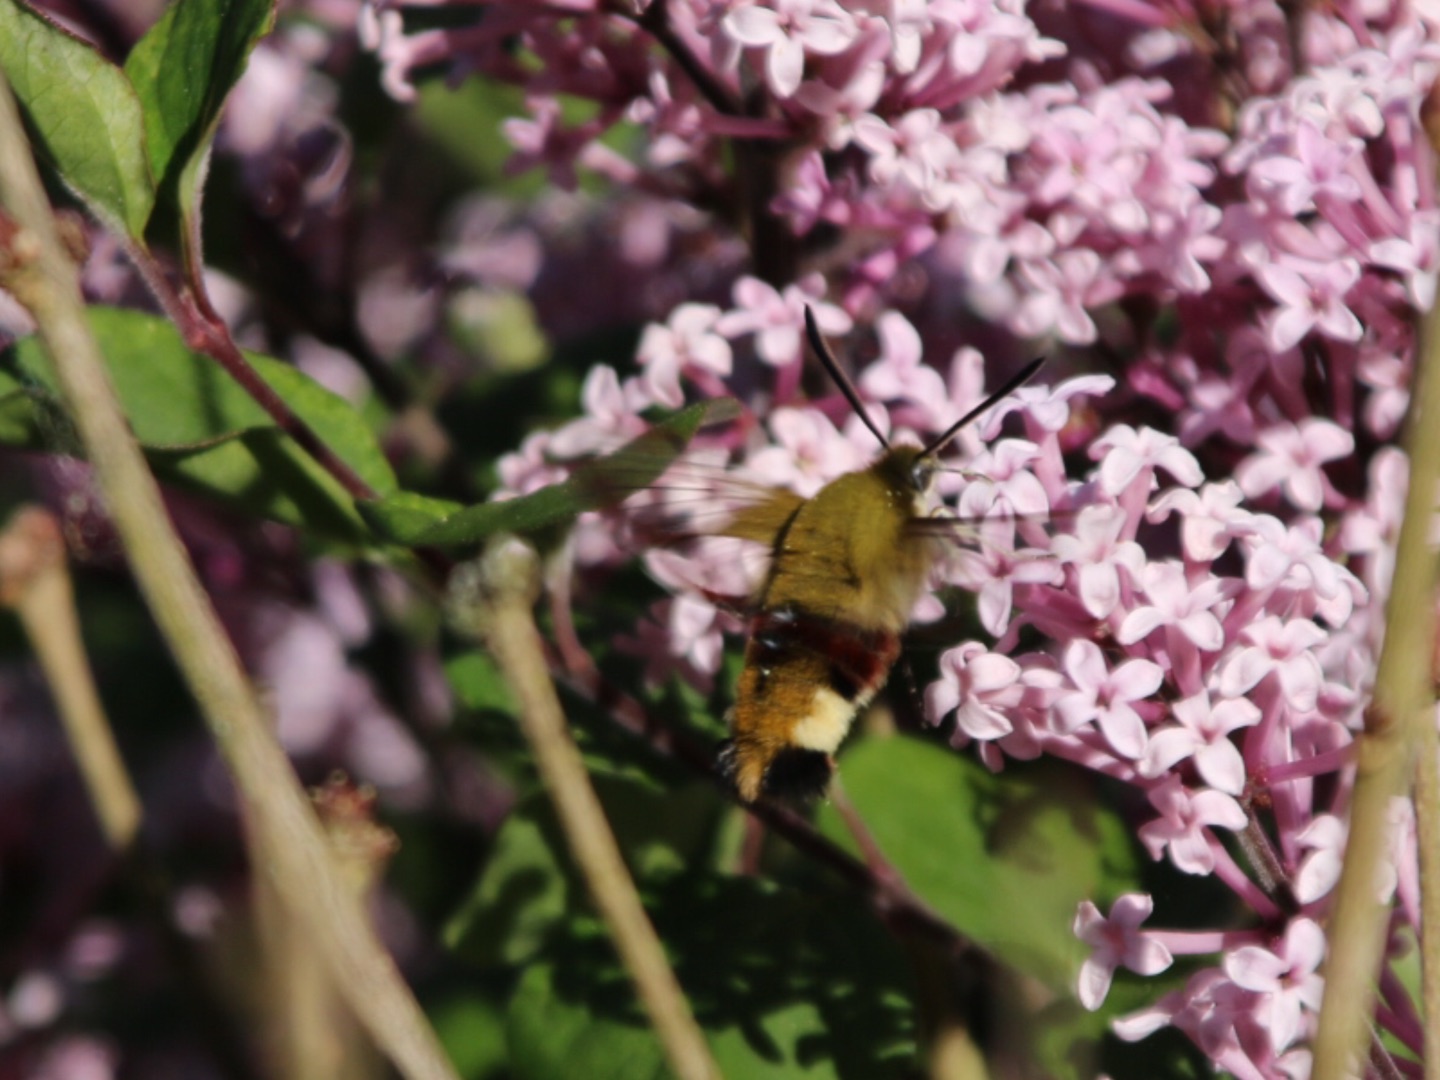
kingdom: Animalia
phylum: Arthropoda
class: Insecta
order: Lepidoptera
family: Sphingidae
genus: Hemaris
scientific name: Hemaris fuciformis
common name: Bredrandet humlebisværmer
